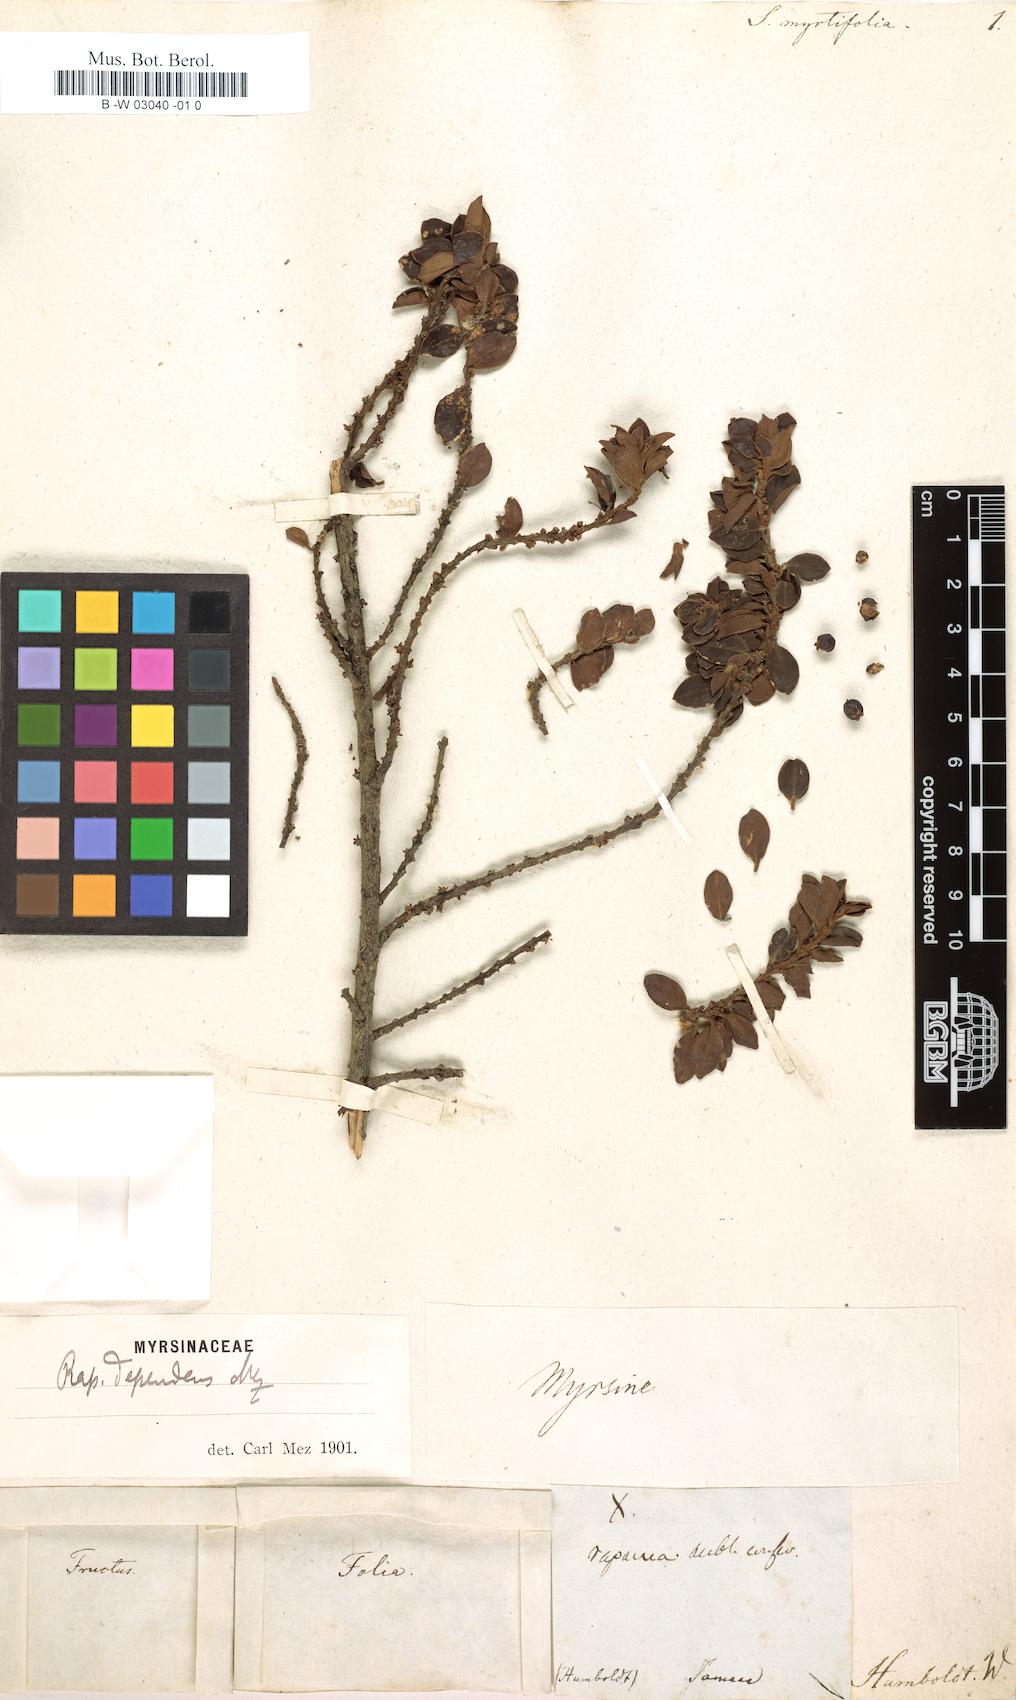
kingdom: Plantae
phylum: Tracheophyta
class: Magnoliopsida
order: Ericales
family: Primulaceae
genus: Myrsine
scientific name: Myrsine dependens
